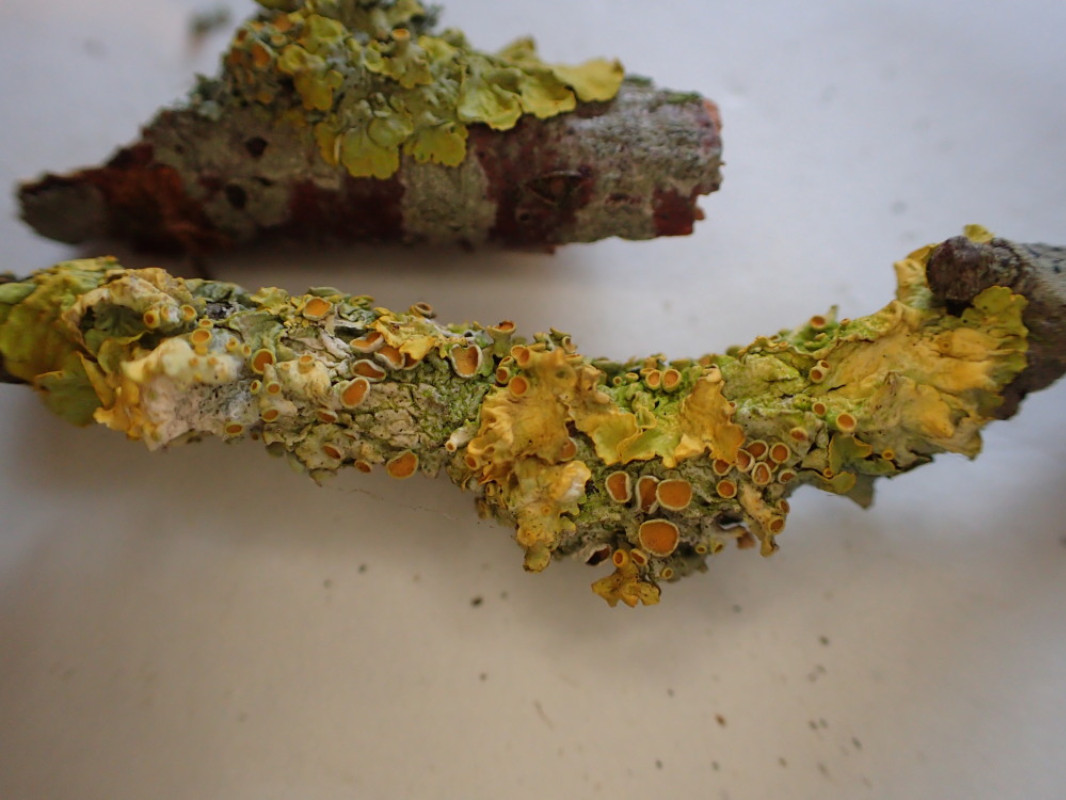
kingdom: Fungi
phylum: Ascomycota
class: Lecanoromycetes
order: Teloschistales
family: Teloschistaceae
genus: Xanthoria
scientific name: Xanthoria parietina
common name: almindelig væggelav
